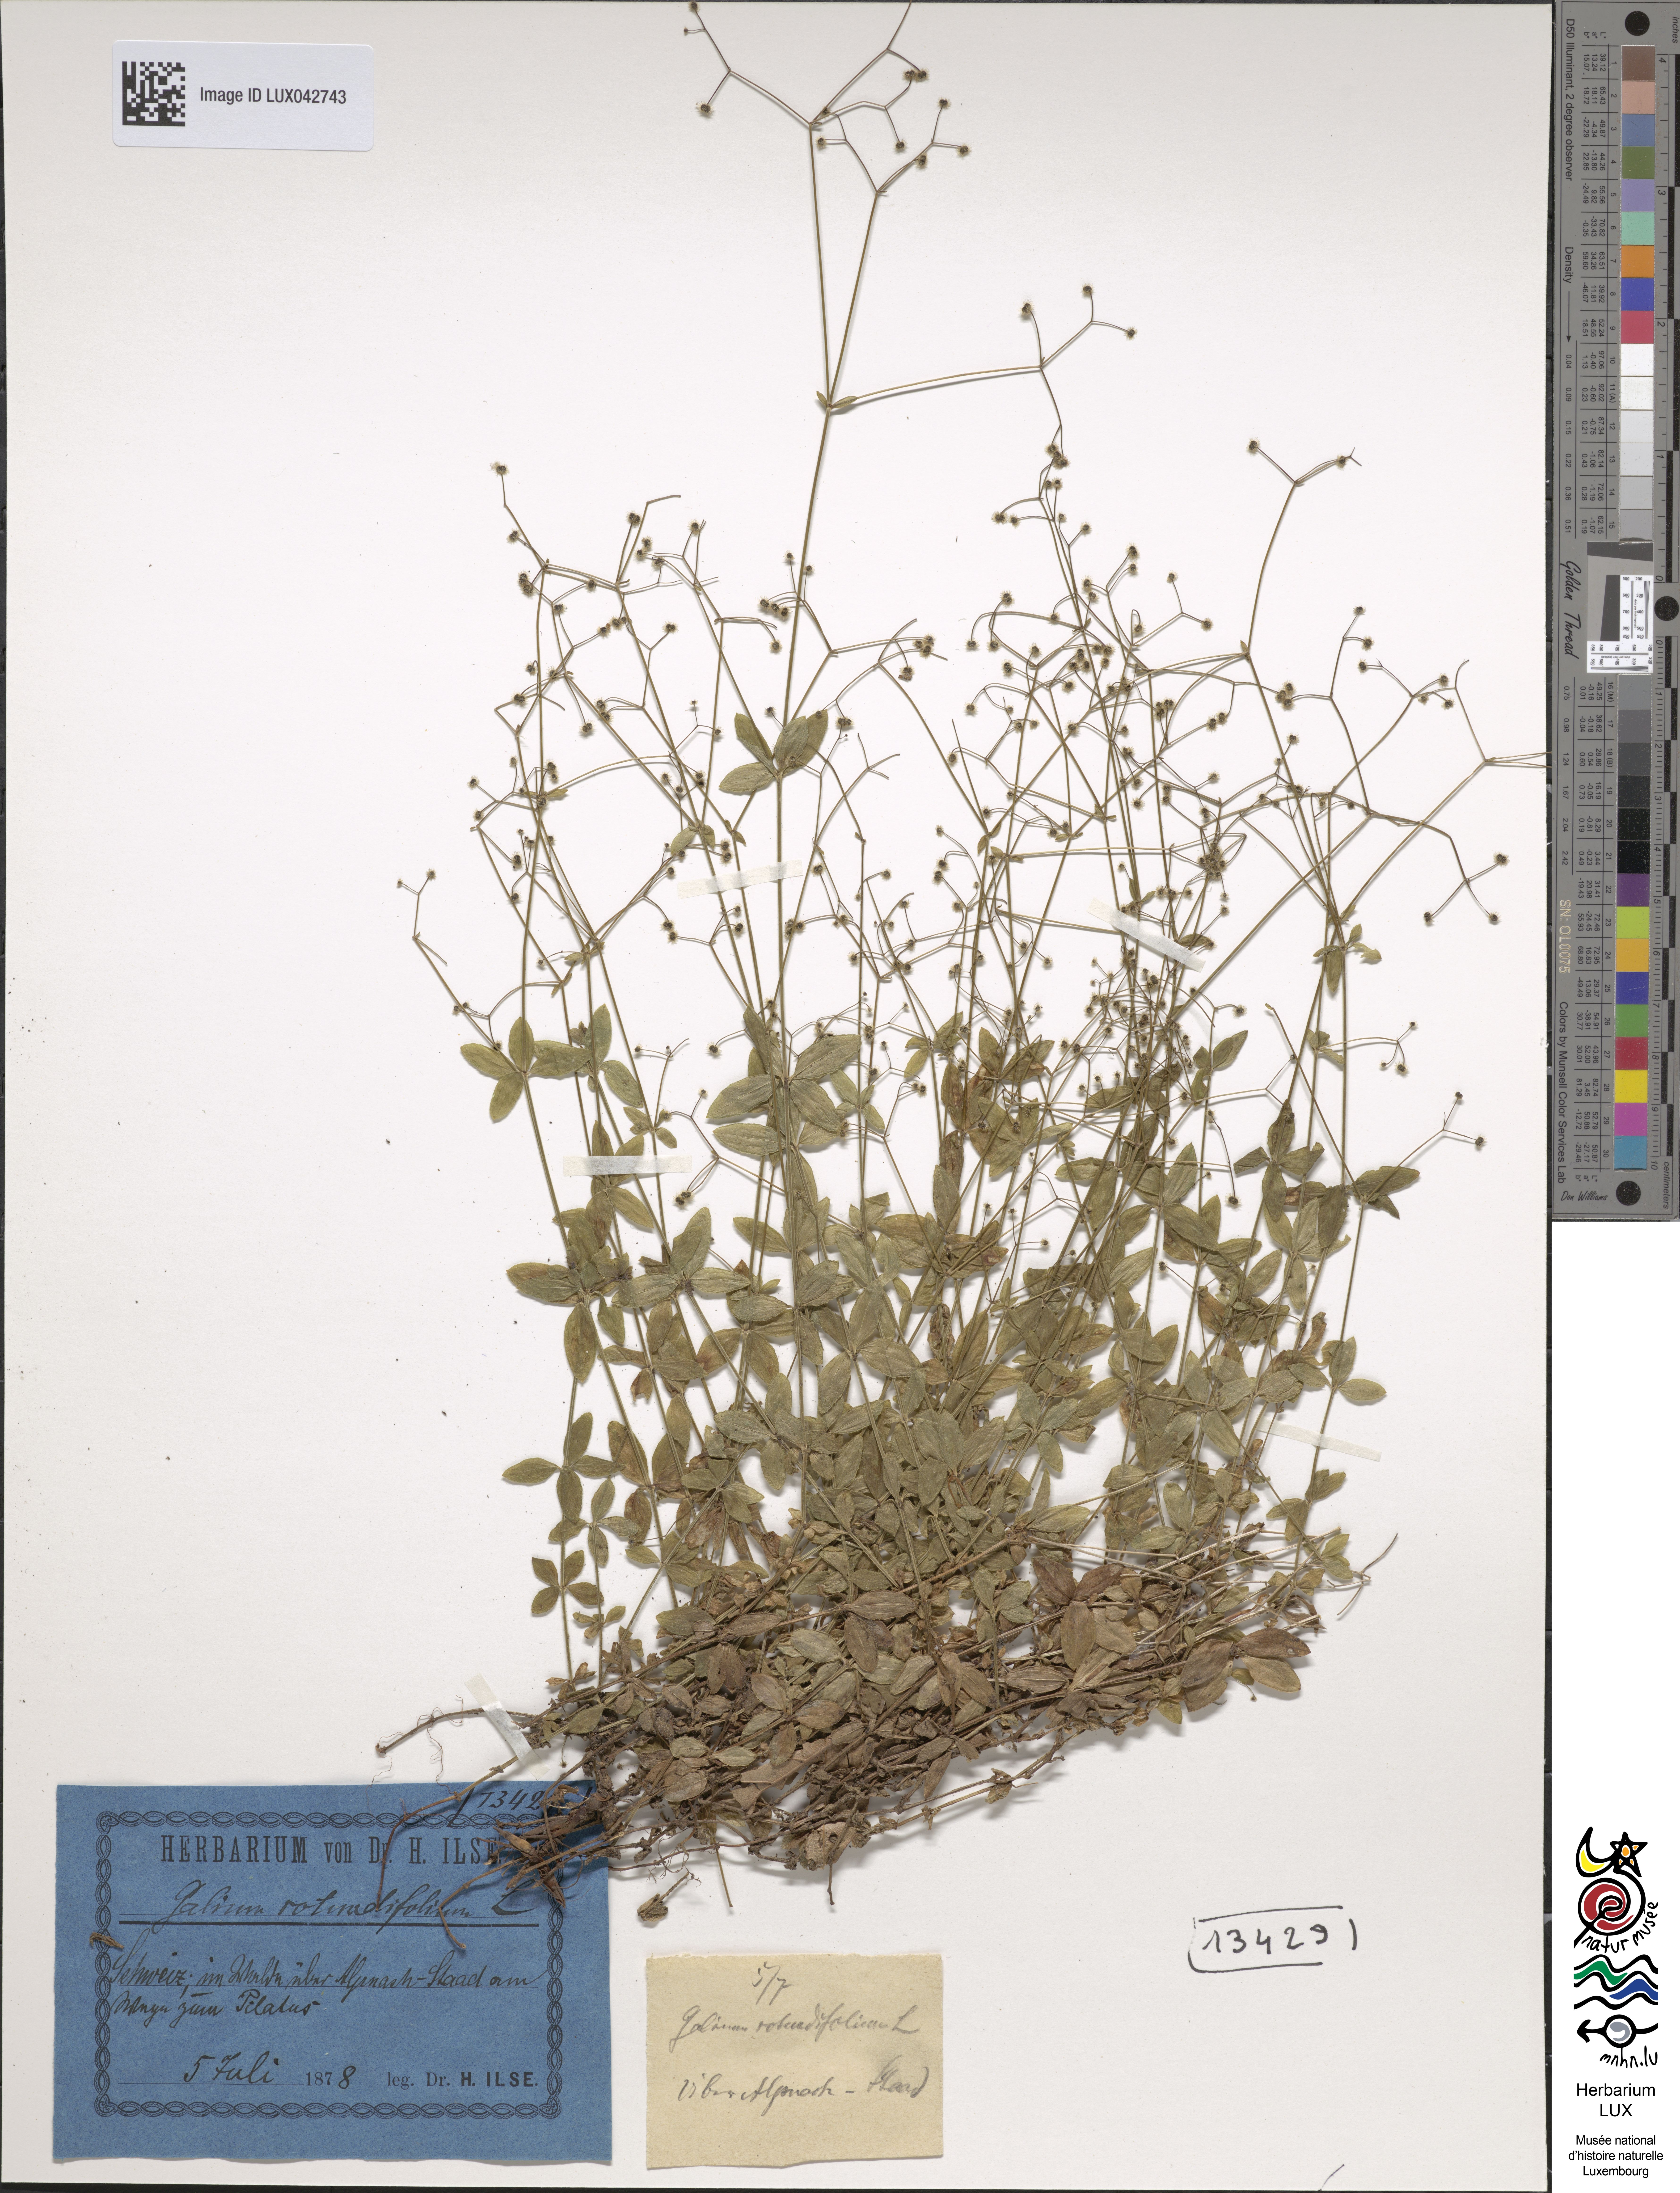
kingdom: Plantae
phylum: Tracheophyta
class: Magnoliopsida
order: Gentianales
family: Rubiaceae
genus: Galium
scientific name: Galium rotundifolium
